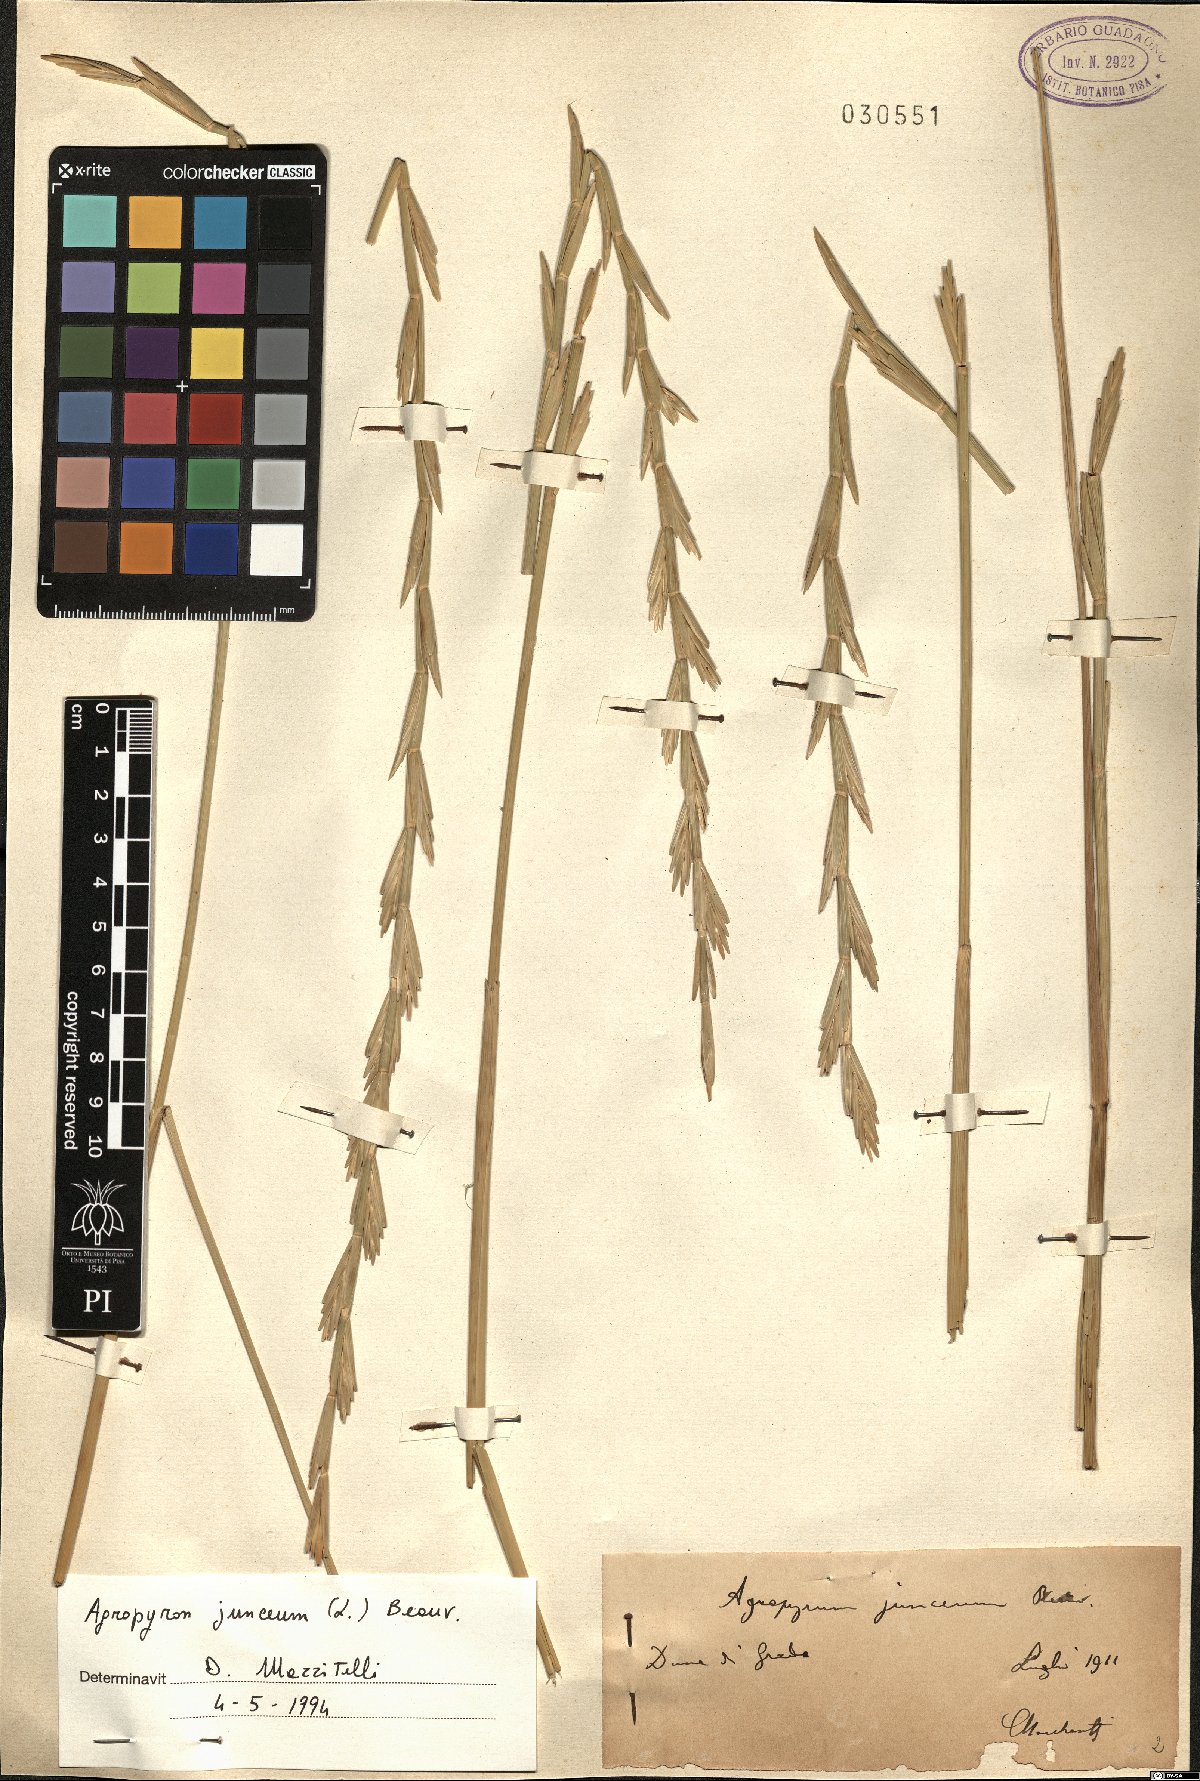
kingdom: Plantae
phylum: Tracheophyta
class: Liliopsida
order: Poales
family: Poaceae
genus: Thinopyrum
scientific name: Thinopyrum junceum
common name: Russian wheatgrass
